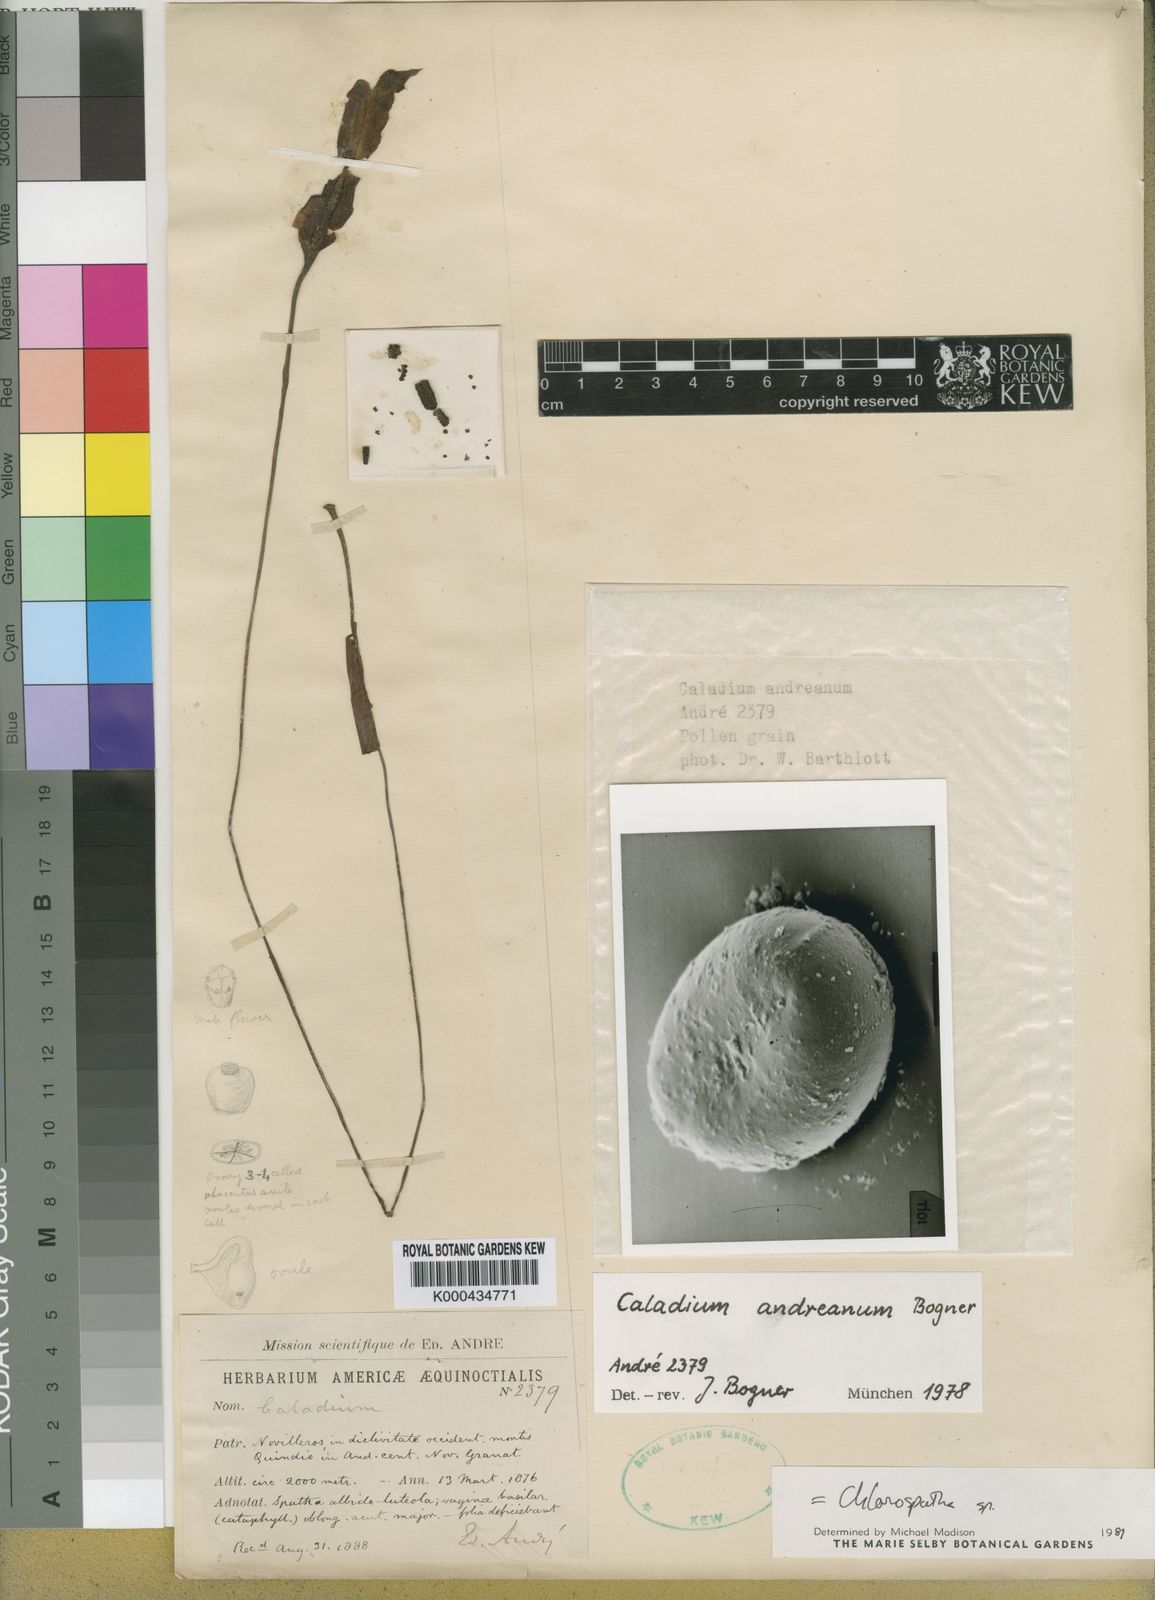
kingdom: Plantae
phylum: Tracheophyta
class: Liliopsida
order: Alismatales
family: Araceae
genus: Caladium
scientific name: Caladium andreanum
